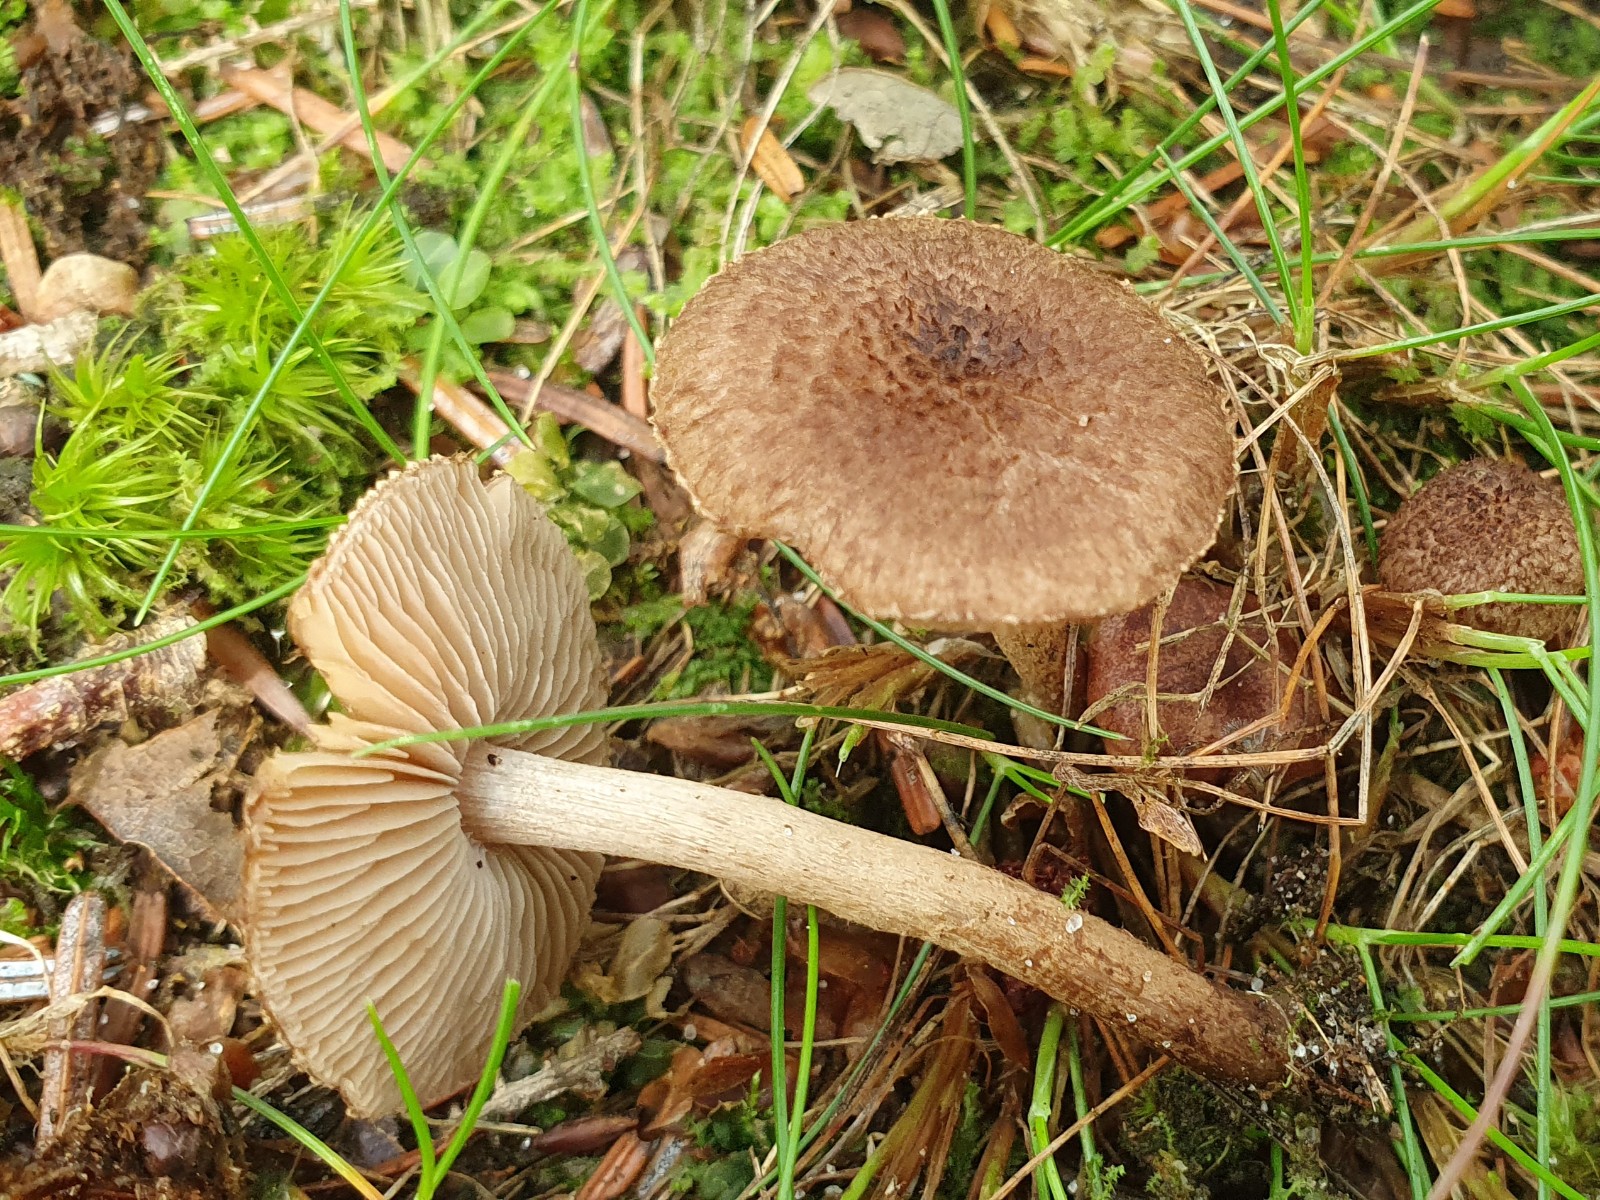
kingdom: Fungi
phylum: Basidiomycota
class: Agaricomycetes
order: Agaricales
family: Inocybaceae
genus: Inocybe
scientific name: Inocybe
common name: trævlhat
